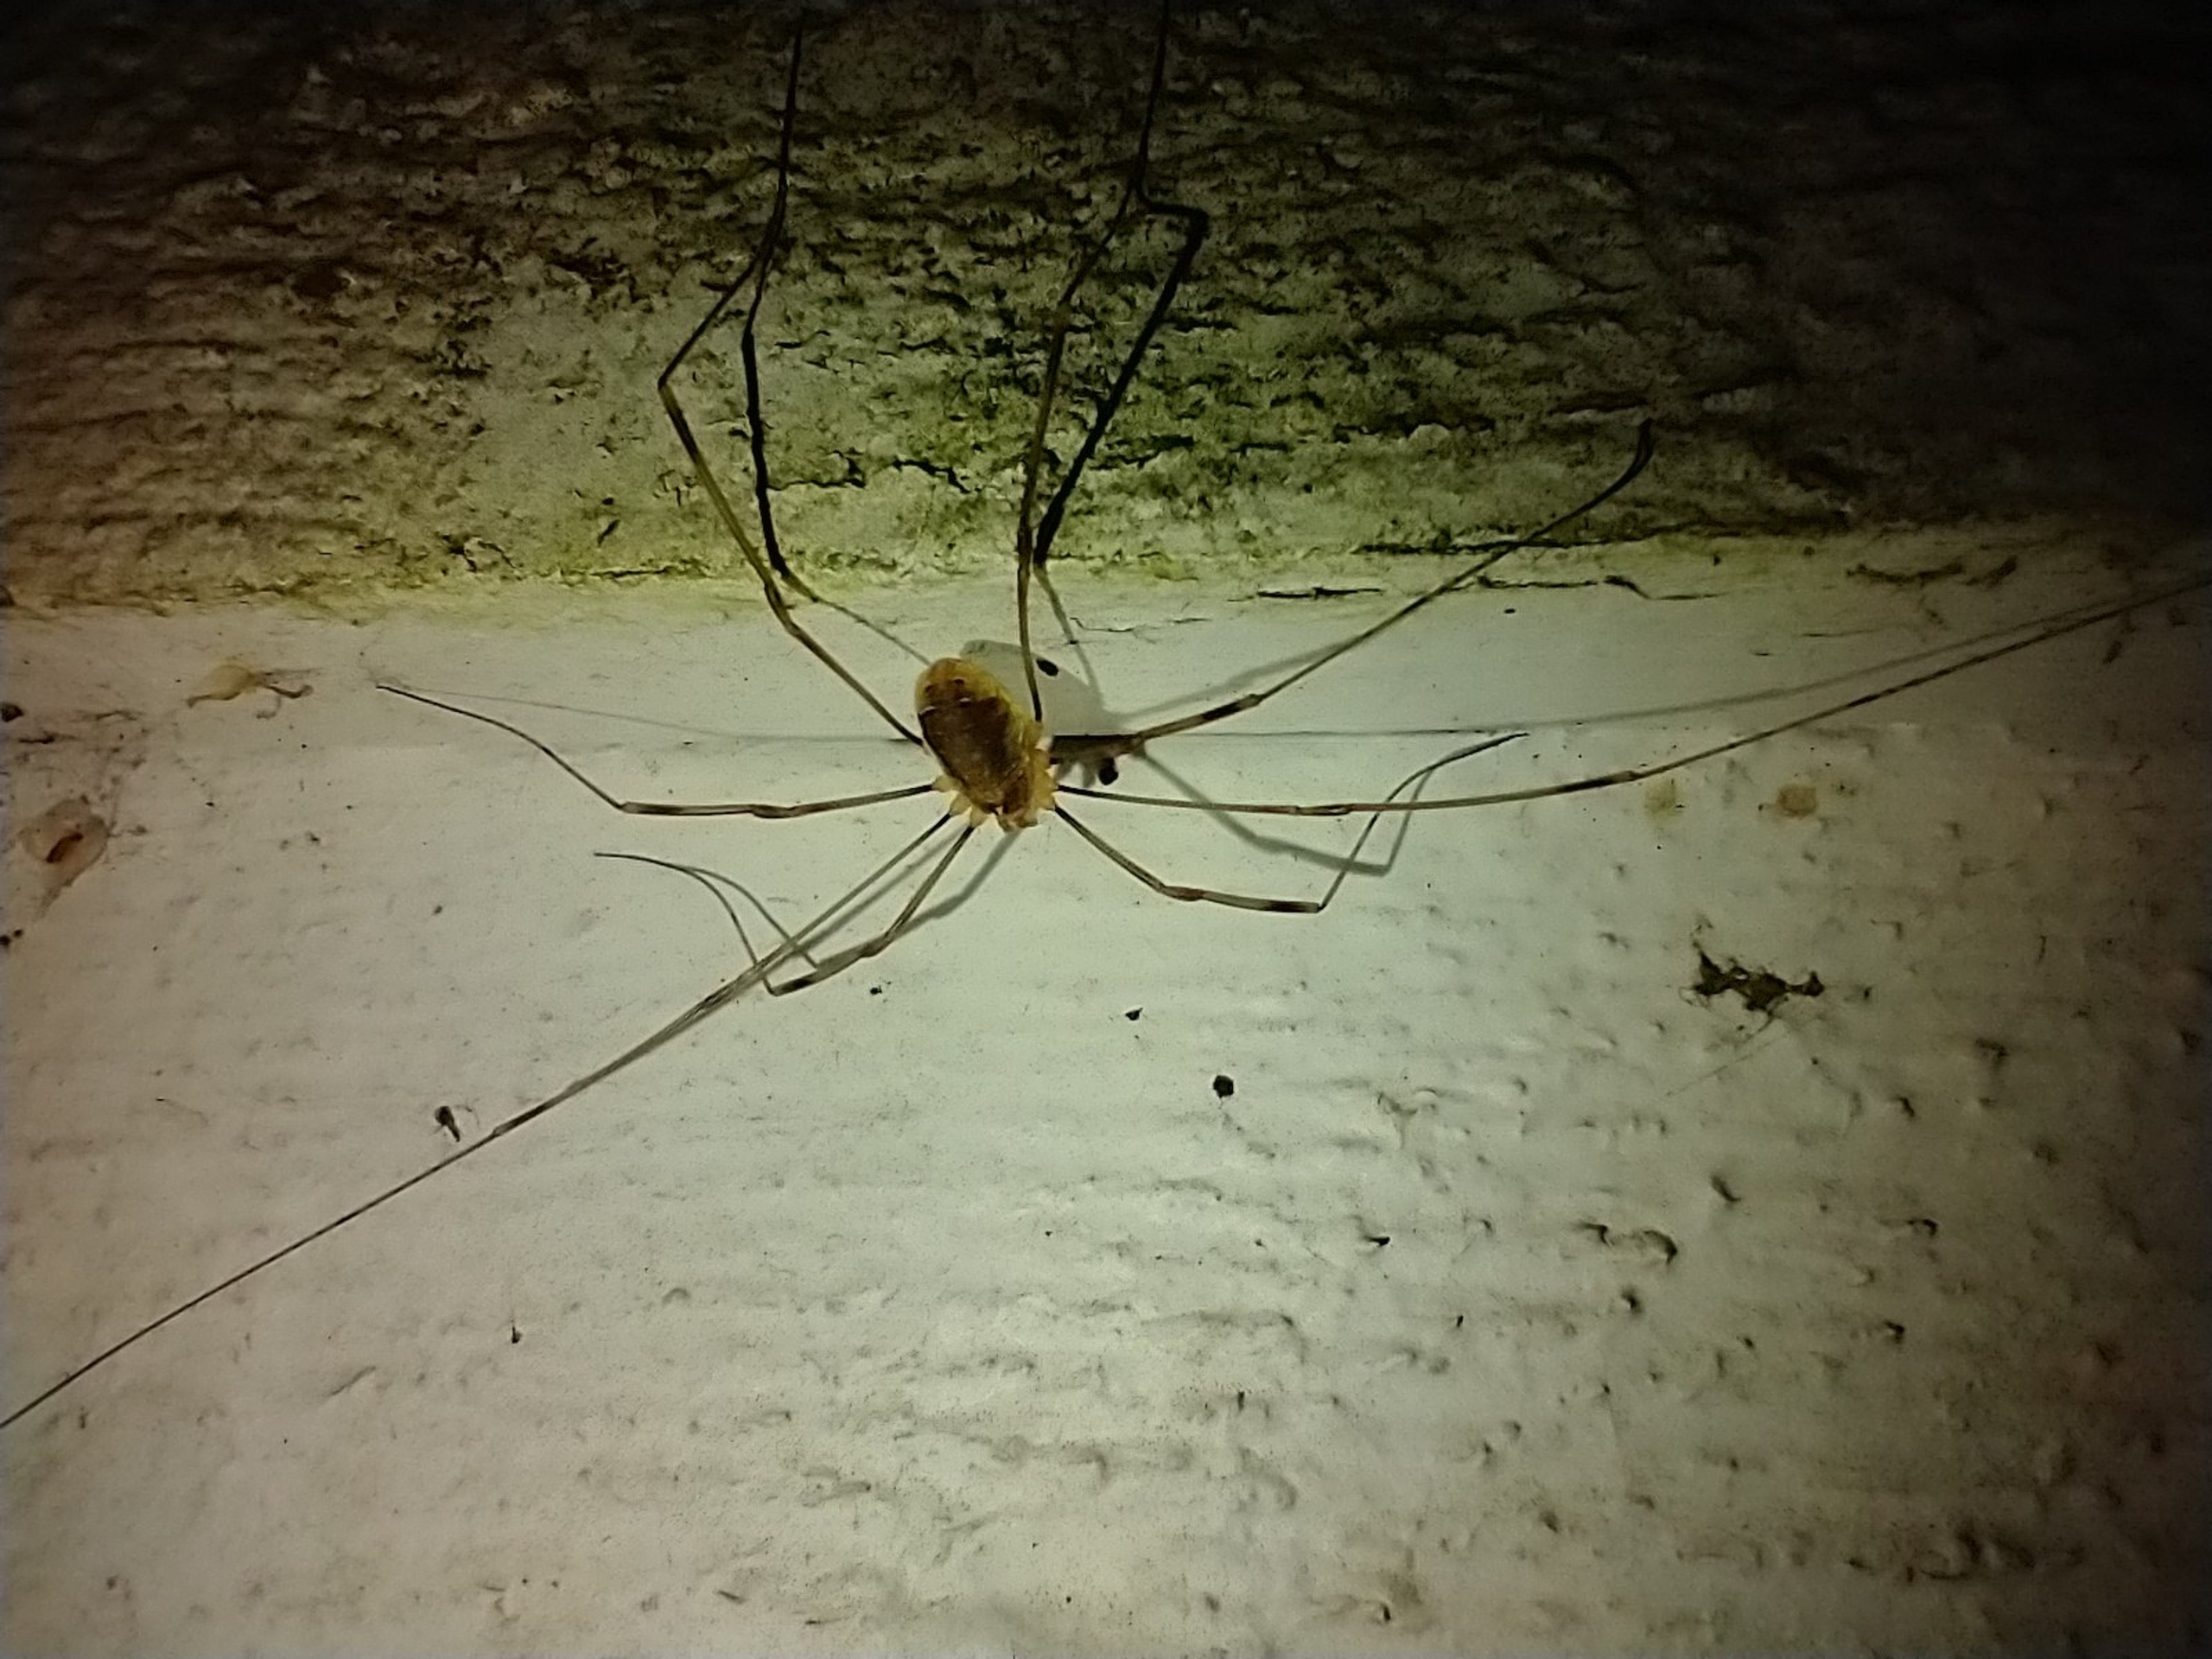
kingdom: Animalia
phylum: Arthropoda
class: Arachnida
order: Opiliones
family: Phalangiidae
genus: Opilio
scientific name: Opilio canestrinii
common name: Orange vægmejer
